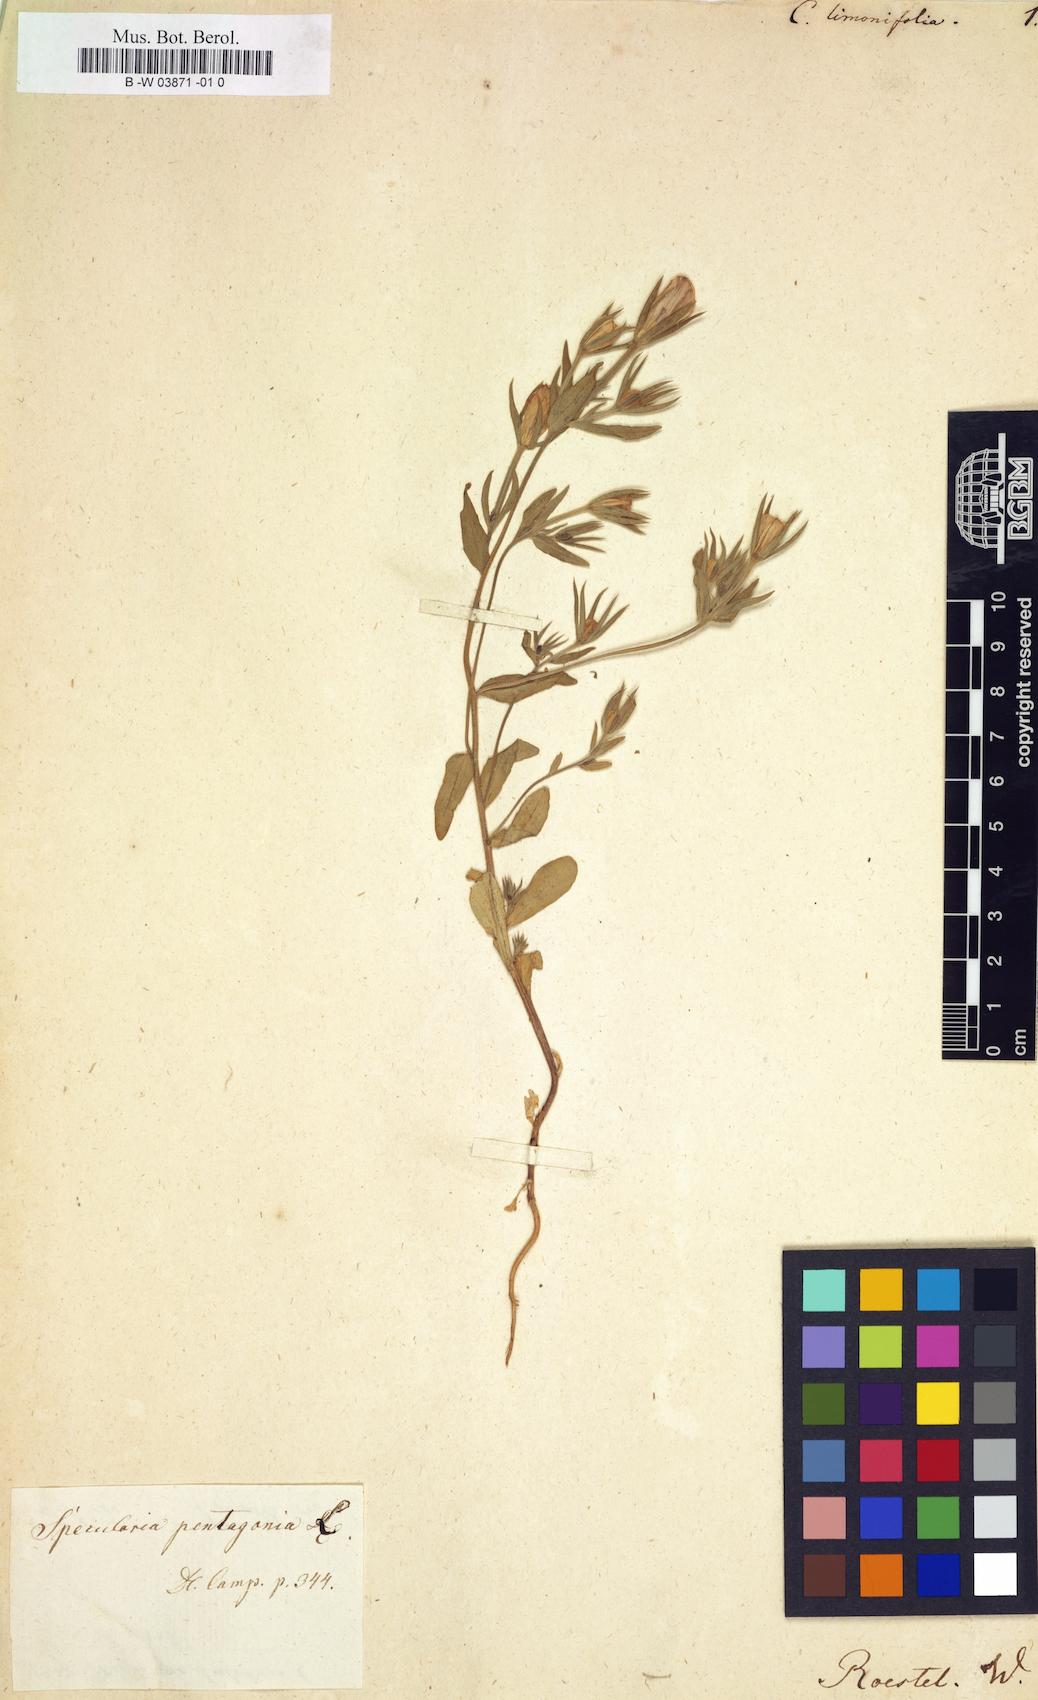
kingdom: Plantae
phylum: Tracheophyta
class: Magnoliopsida
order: Asterales
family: Campanulaceae
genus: Asyneuma
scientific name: Asyneuma limonifolium
